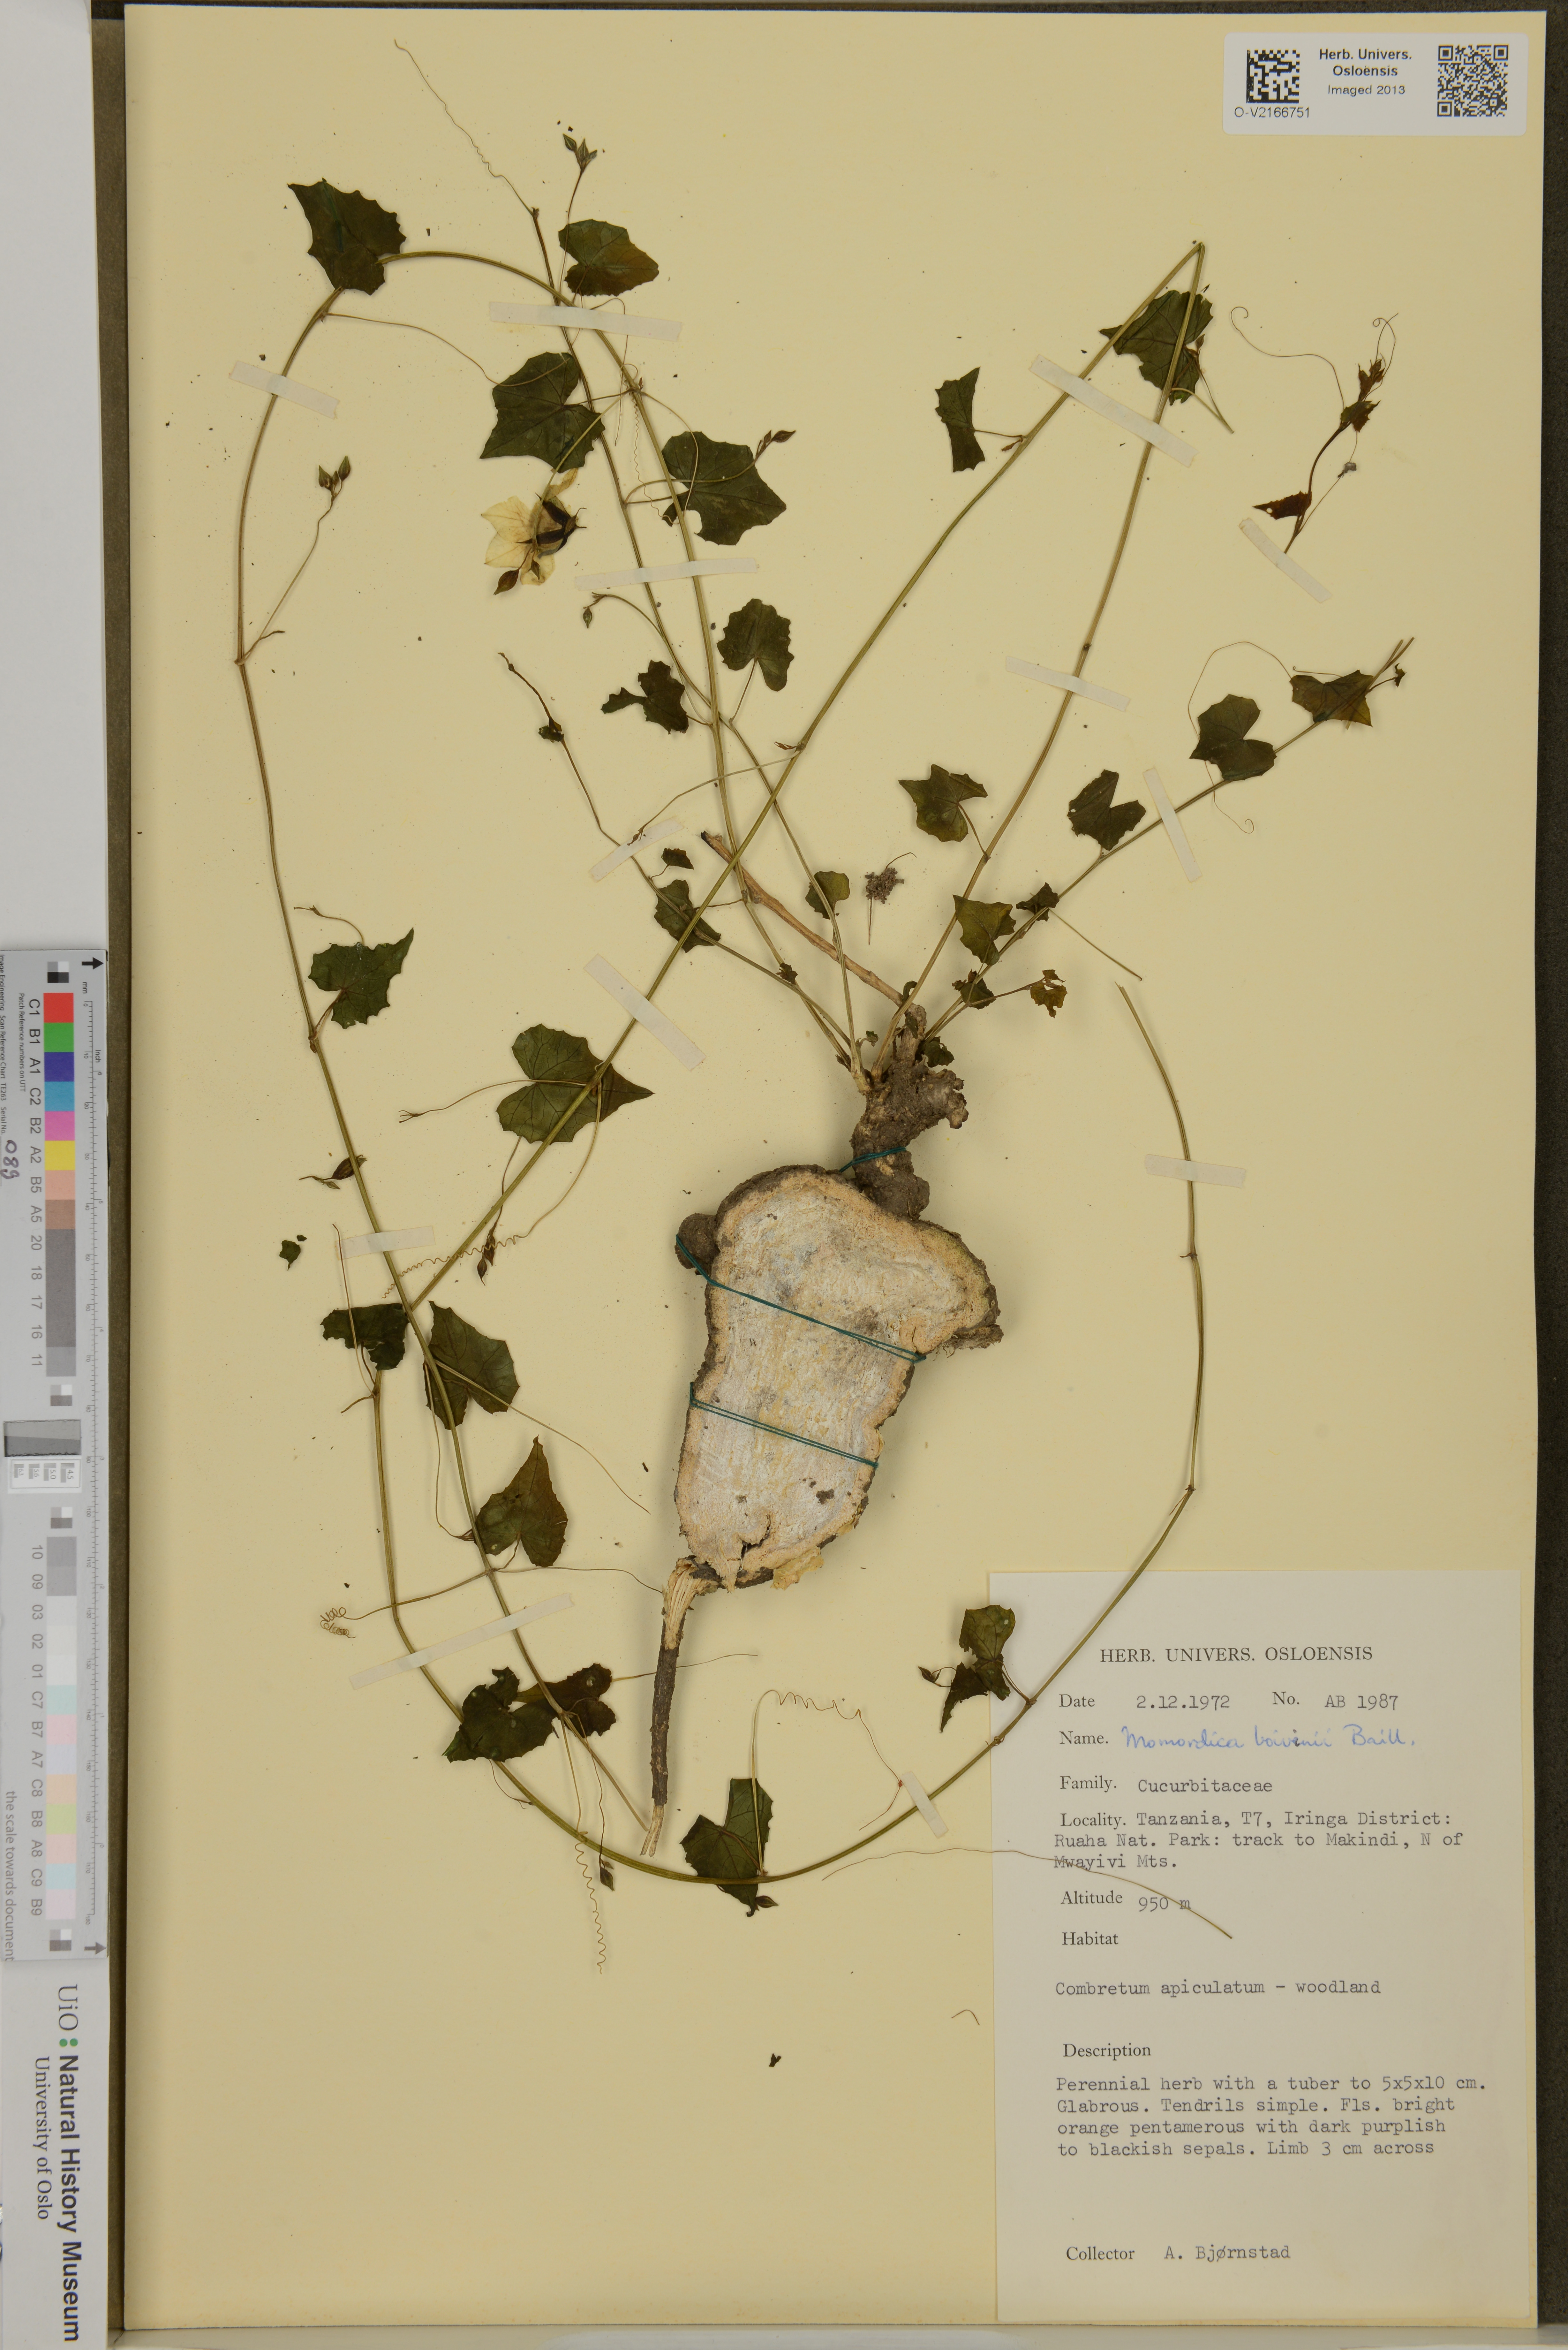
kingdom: Plantae
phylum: Tracheophyta
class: Magnoliopsida
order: Cucurbitales
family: Cucurbitaceae
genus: Momordica
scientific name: Momordica boivinii
